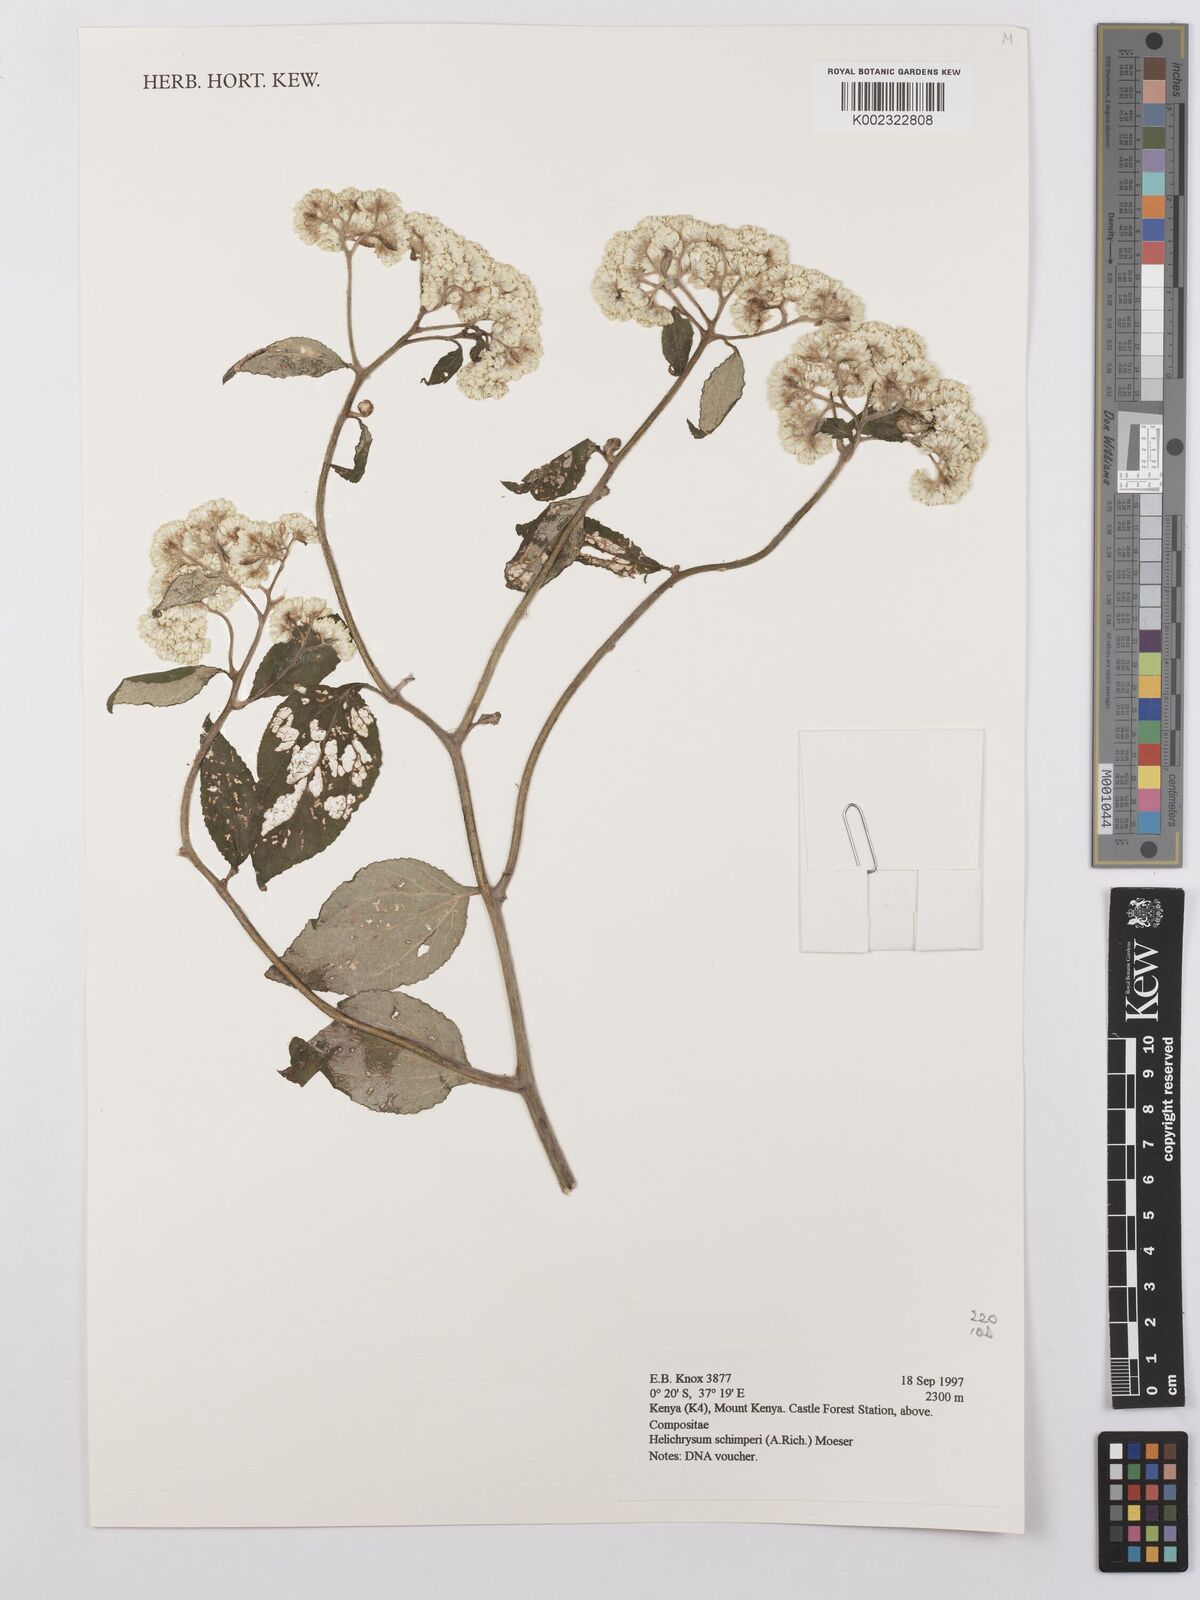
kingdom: Plantae
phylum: Tracheophyta
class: Magnoliopsida
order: Asterales
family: Asteraceae
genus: Helichrysum
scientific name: Helichrysum schimperi
